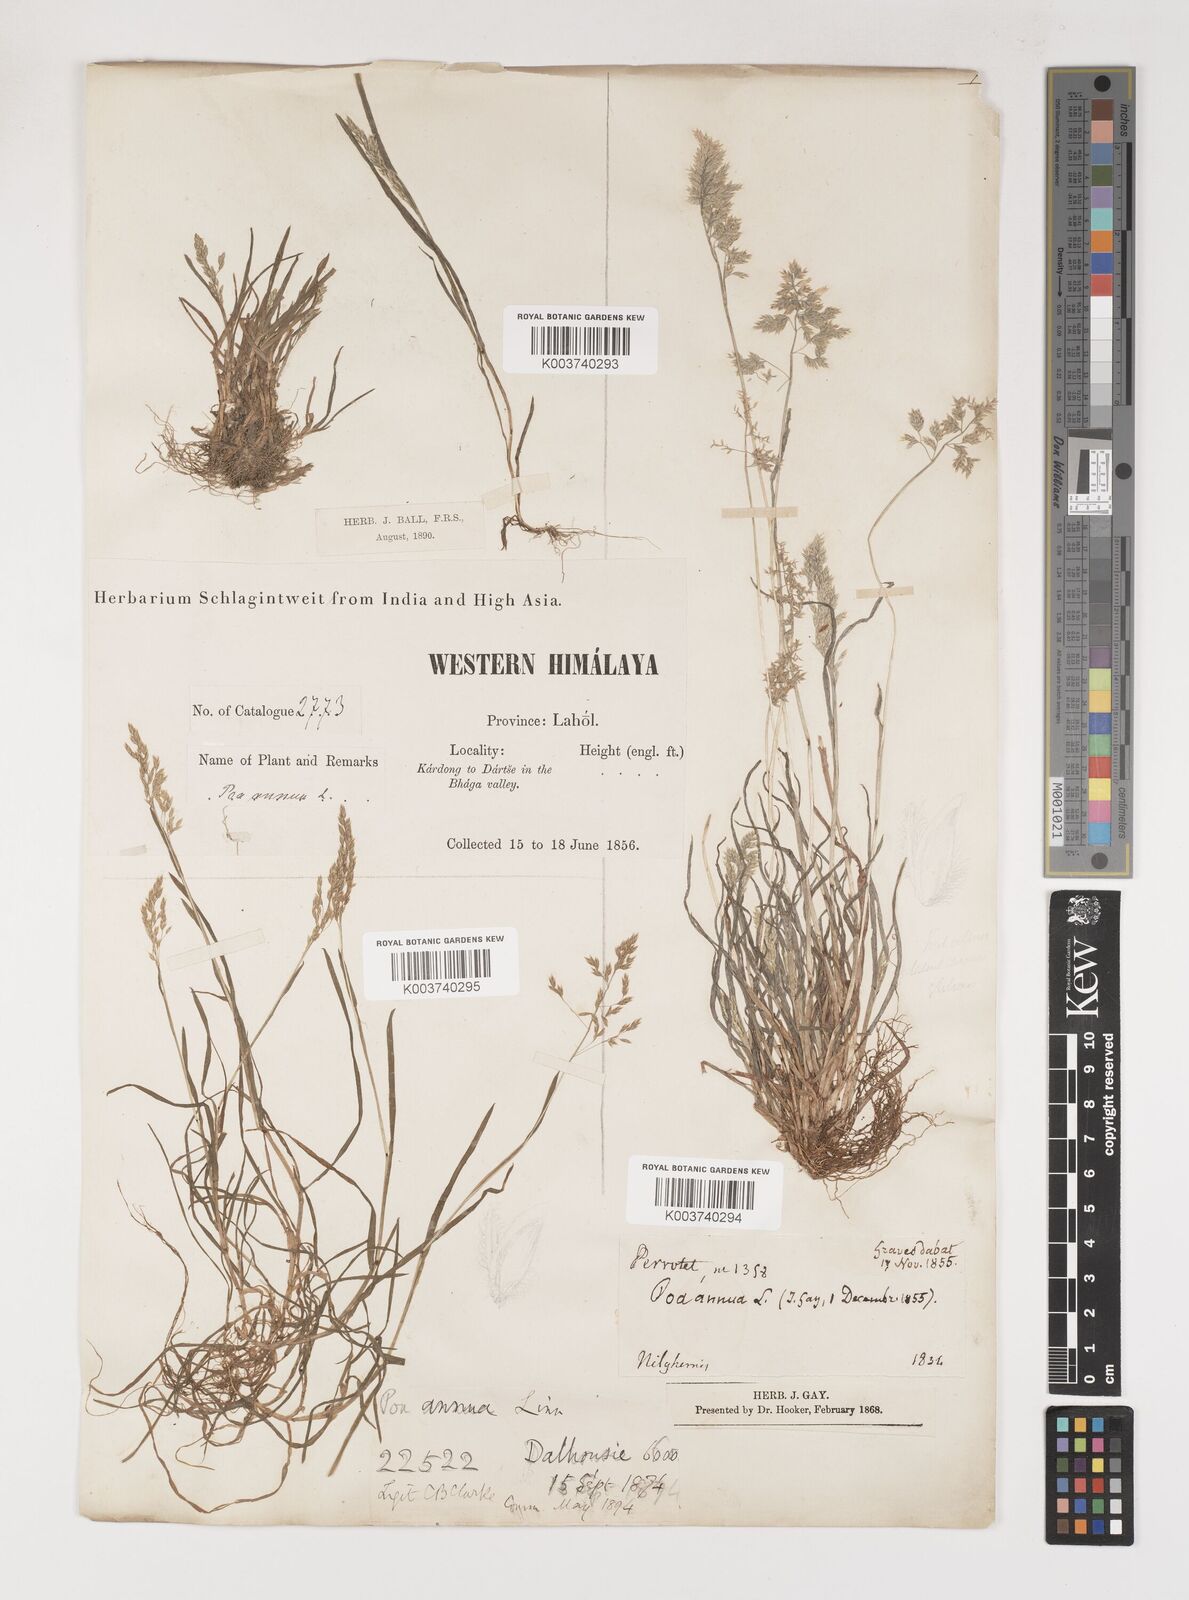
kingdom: Plantae
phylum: Tracheophyta
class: Liliopsida
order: Poales
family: Poaceae
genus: Poa
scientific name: Poa annua
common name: Annual bluegrass
